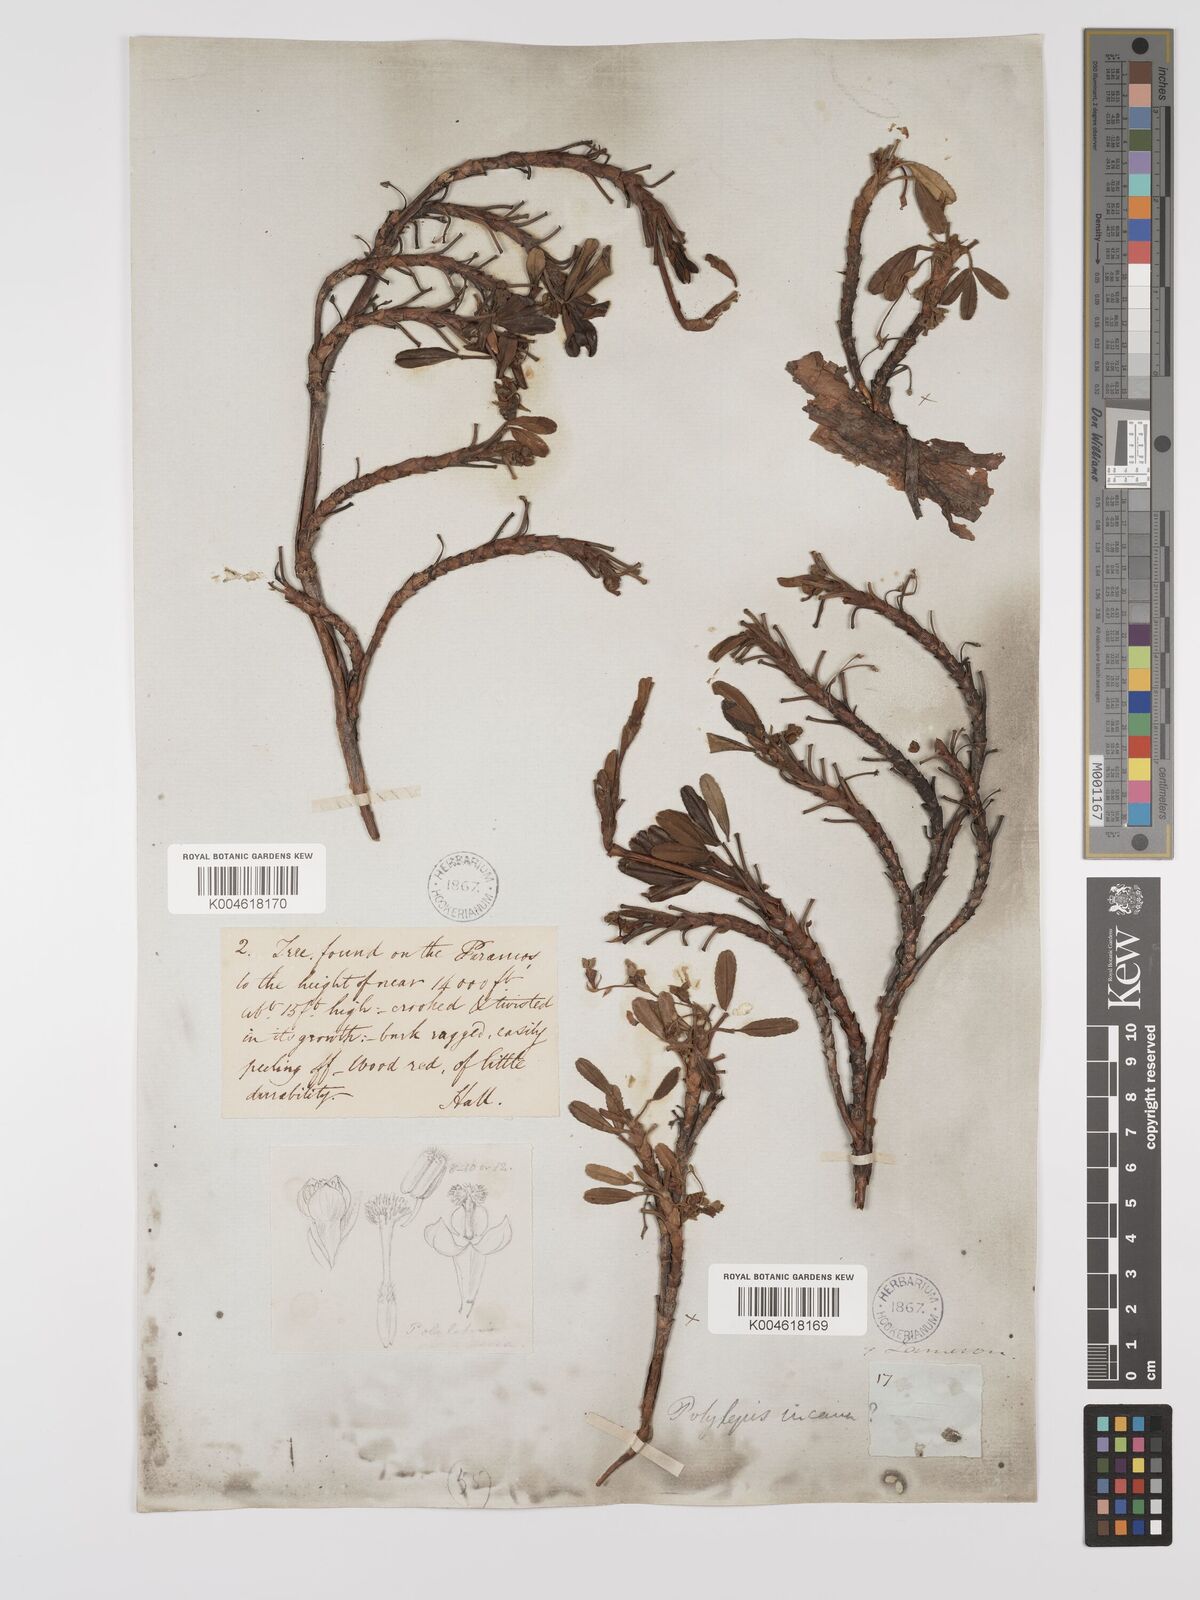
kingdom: Plantae
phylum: Tracheophyta
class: Magnoliopsida
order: Rosales
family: Rosaceae
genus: Polylepis
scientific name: Polylepis incana
